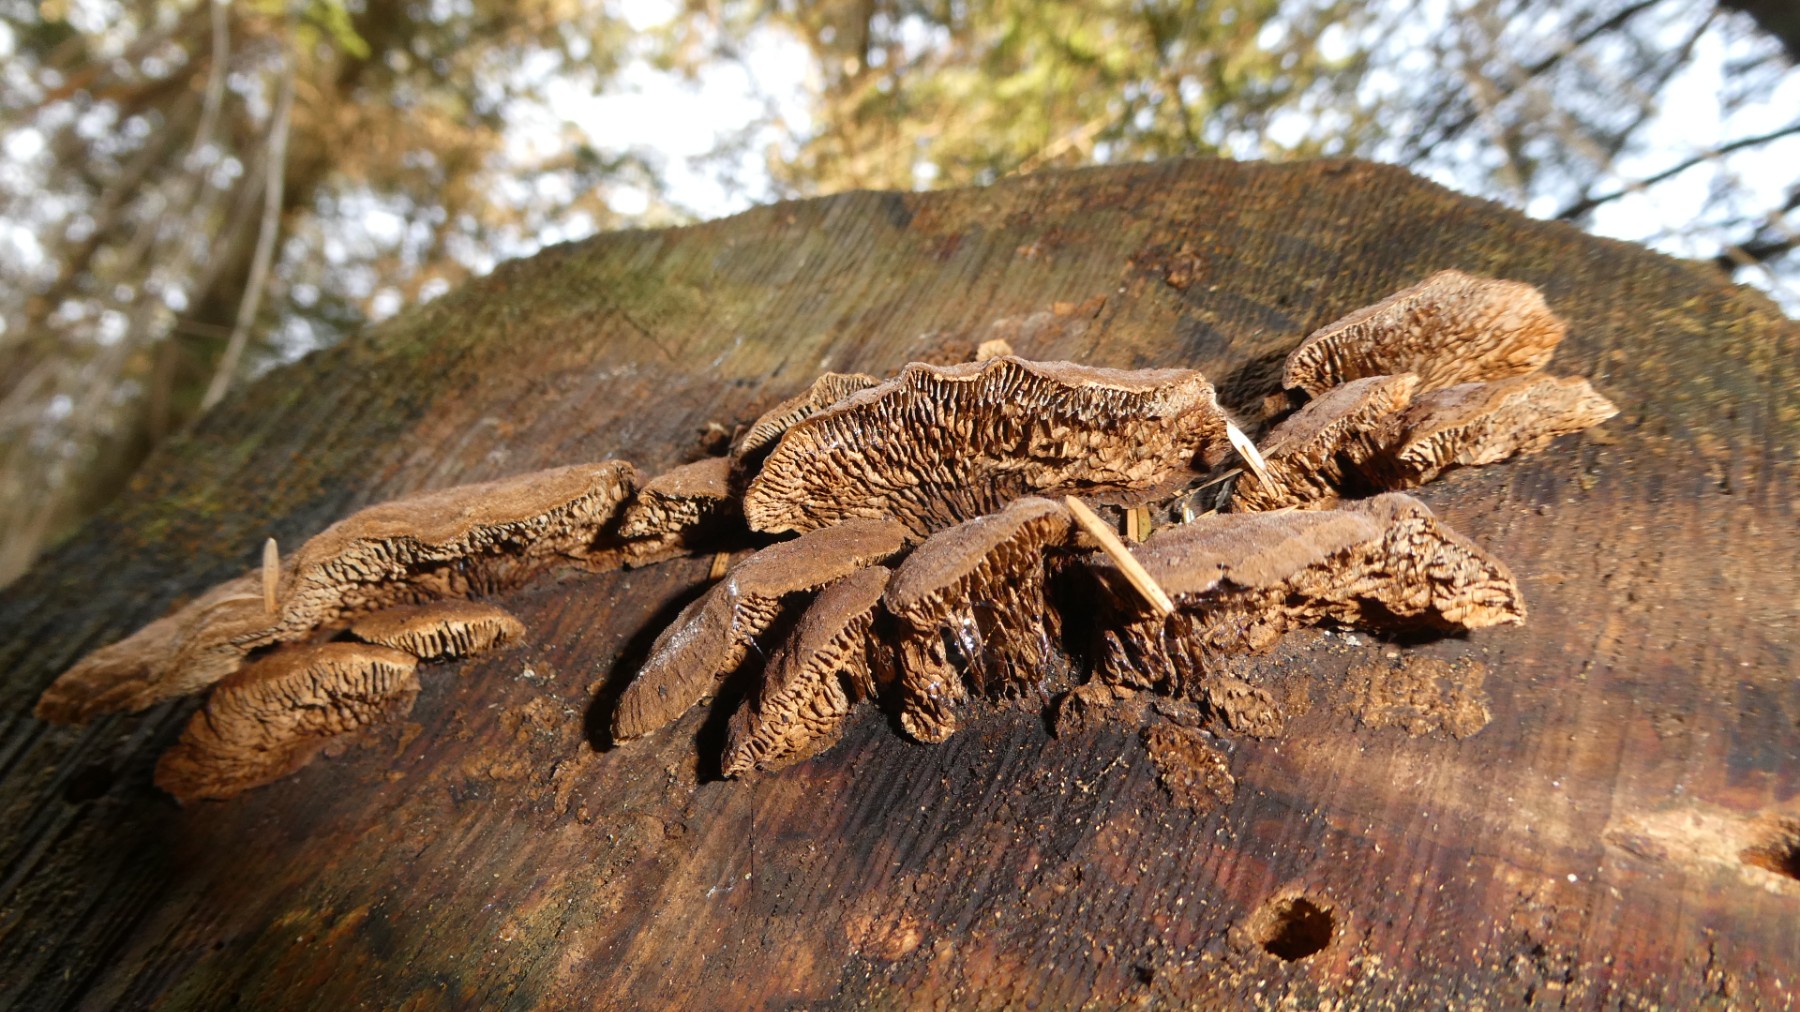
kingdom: Fungi
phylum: Basidiomycota
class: Agaricomycetes
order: Gloeophyllales
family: Gloeophyllaceae
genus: Gloeophyllum
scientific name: Gloeophyllum sepiarium
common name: fyrre-korkhat
